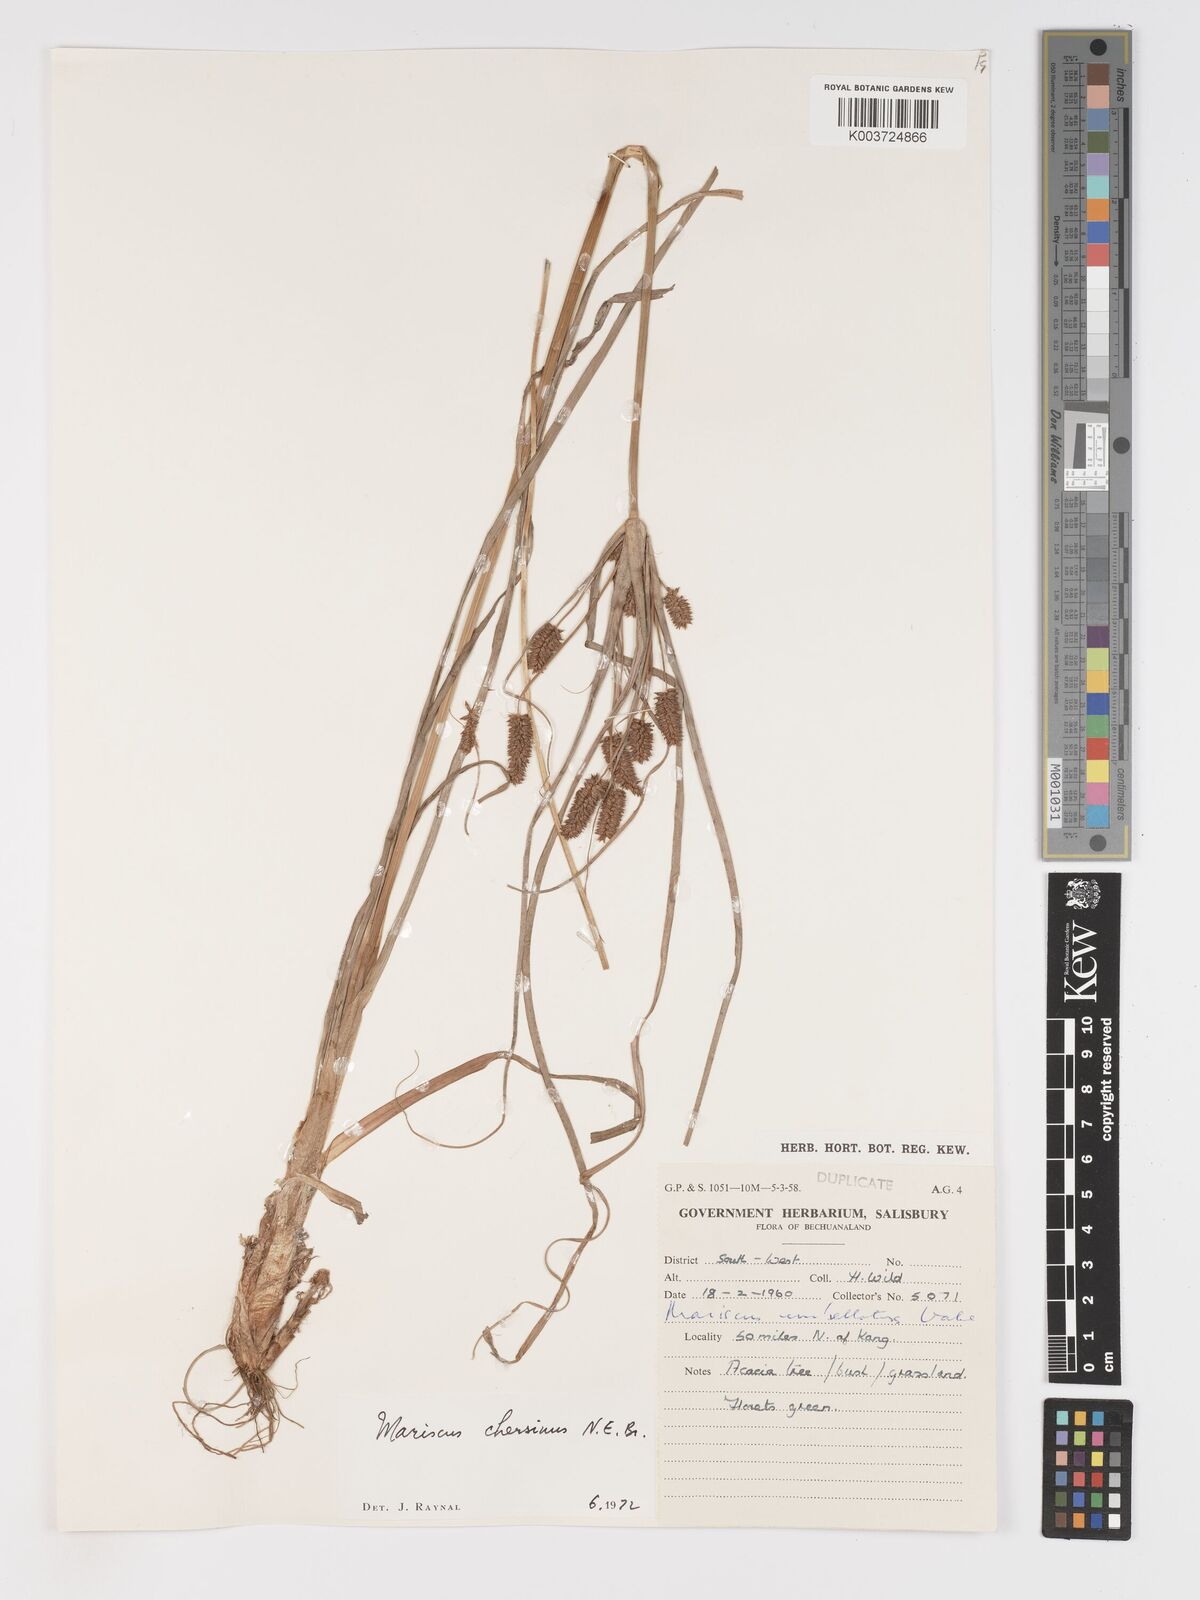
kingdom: Plantae
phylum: Tracheophyta
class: Liliopsida
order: Poales
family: Cyperaceae
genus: Cyperus
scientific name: Cyperus chersinus
